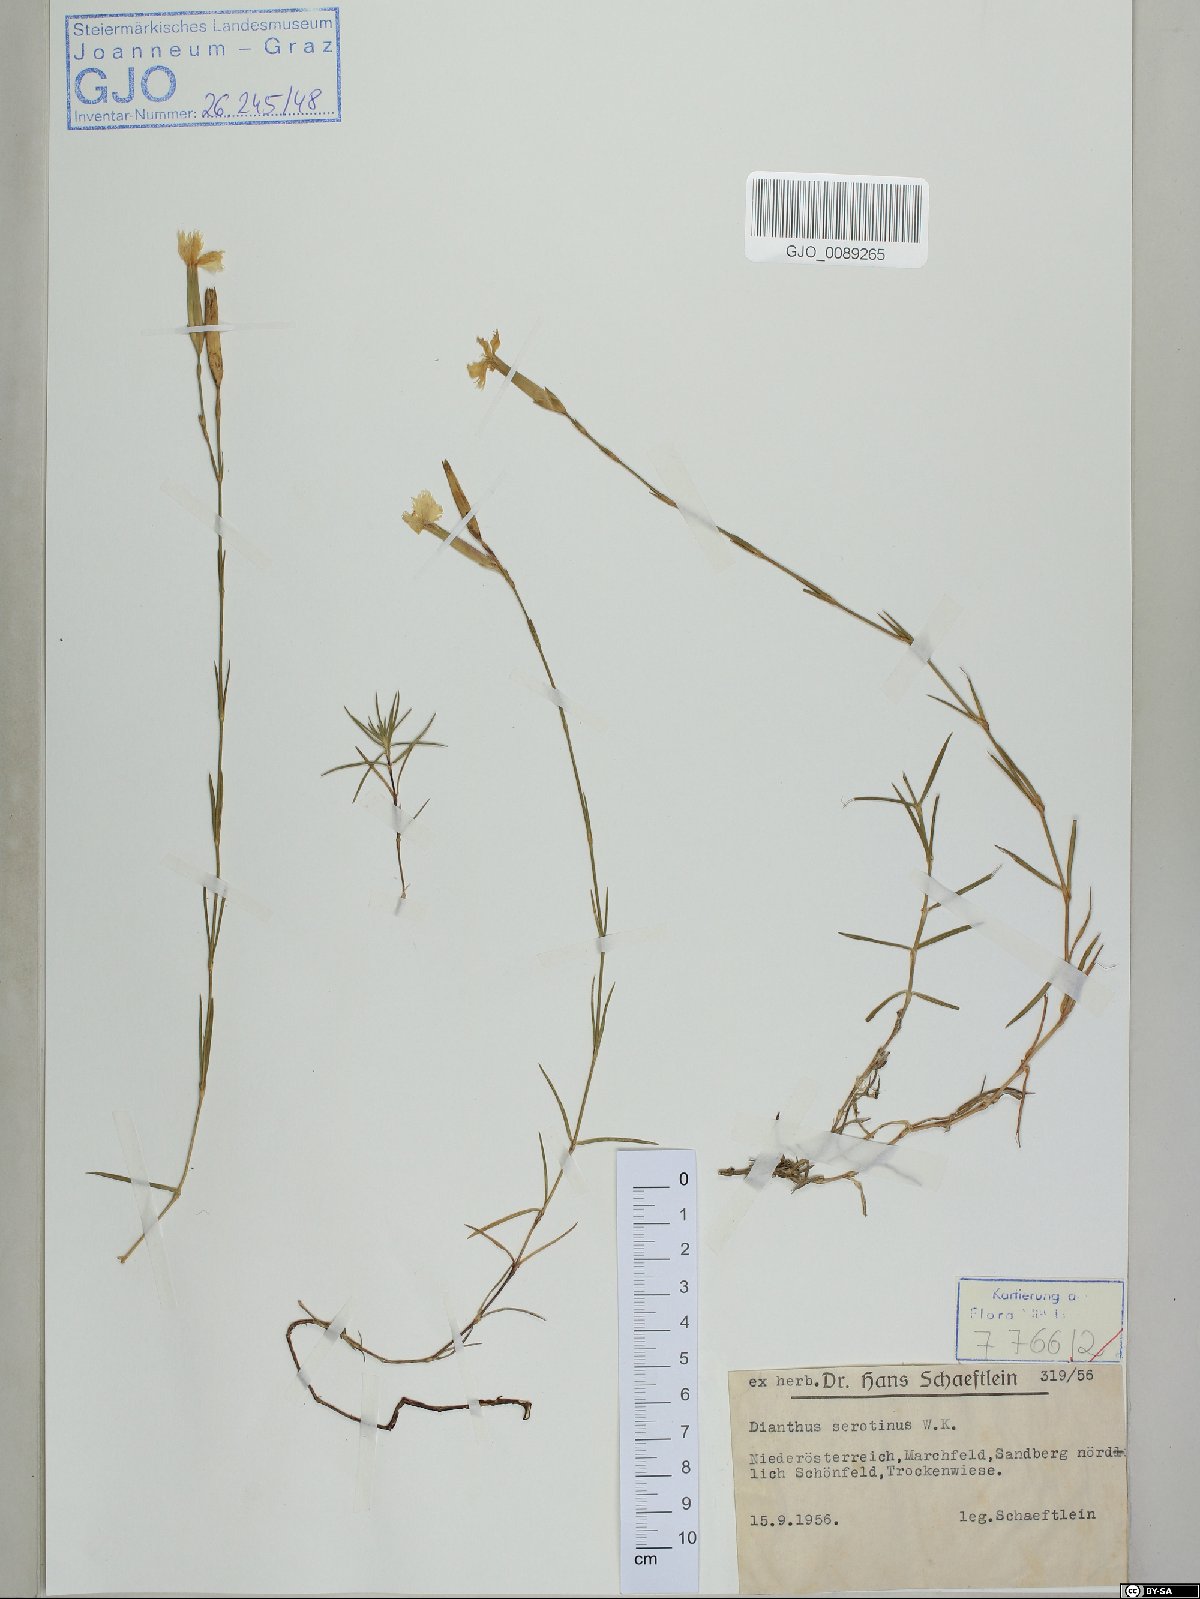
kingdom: Plantae
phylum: Tracheophyta
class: Magnoliopsida
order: Caryophyllales
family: Caryophyllaceae
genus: Dianthus
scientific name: Dianthus serotinus
